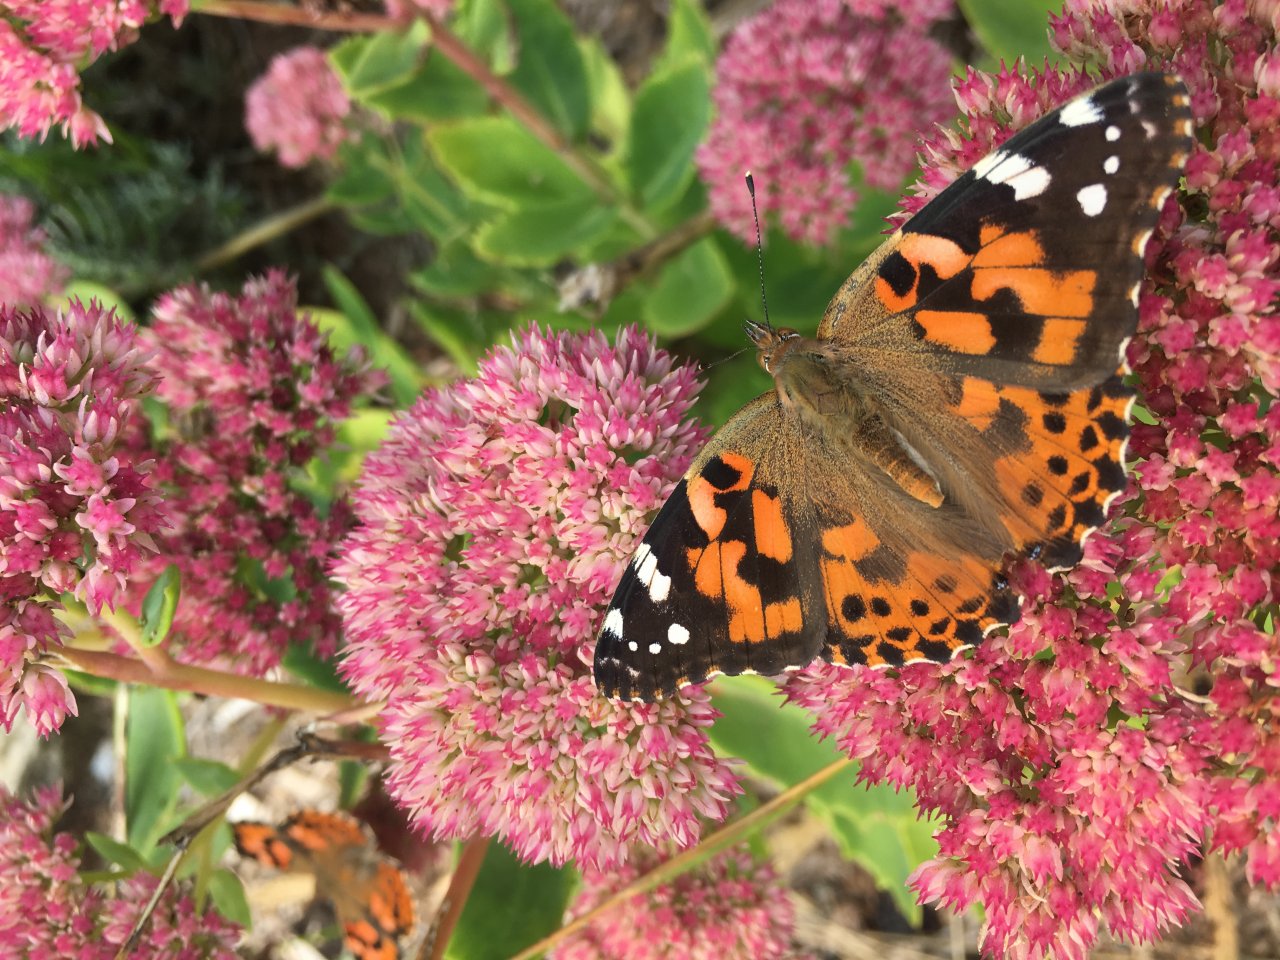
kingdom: Animalia
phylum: Arthropoda
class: Insecta
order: Lepidoptera
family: Nymphalidae
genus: Vanessa
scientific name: Vanessa cardui
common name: Painted Lady
